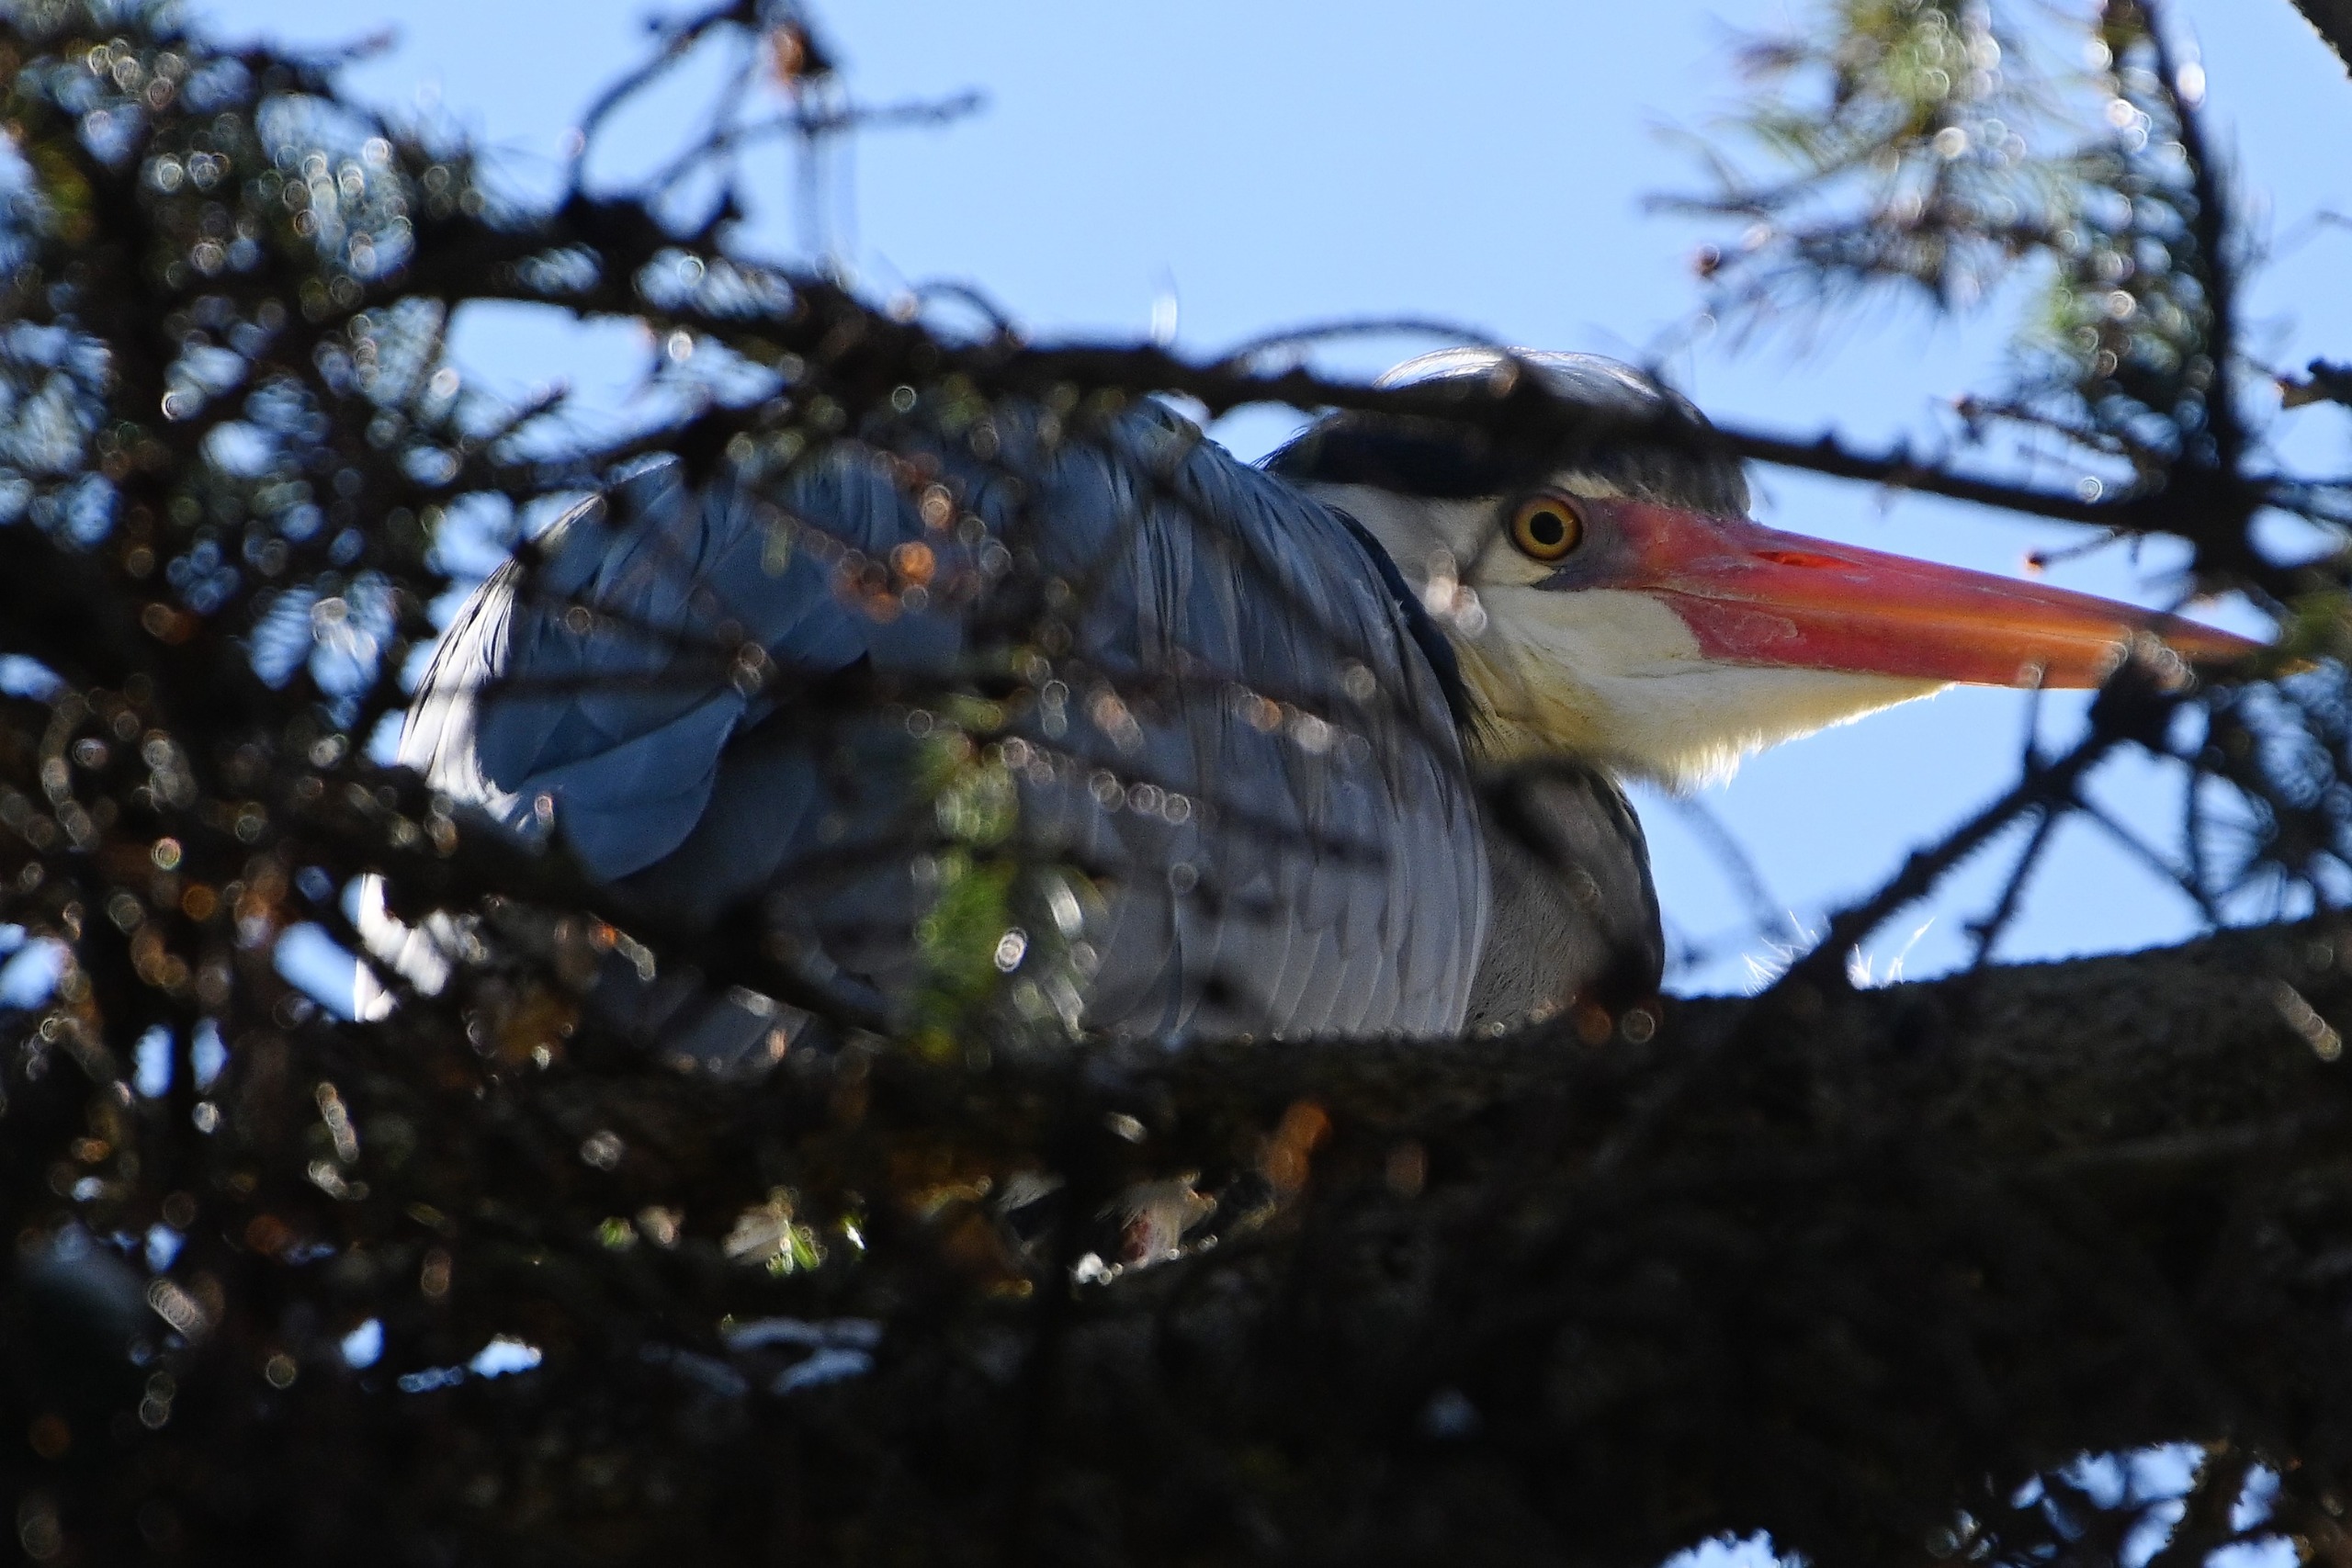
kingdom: Animalia
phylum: Chordata
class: Aves
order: Pelecaniformes
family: Ardeidae
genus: Ardea
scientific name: Ardea cinerea
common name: Fiskehejre
